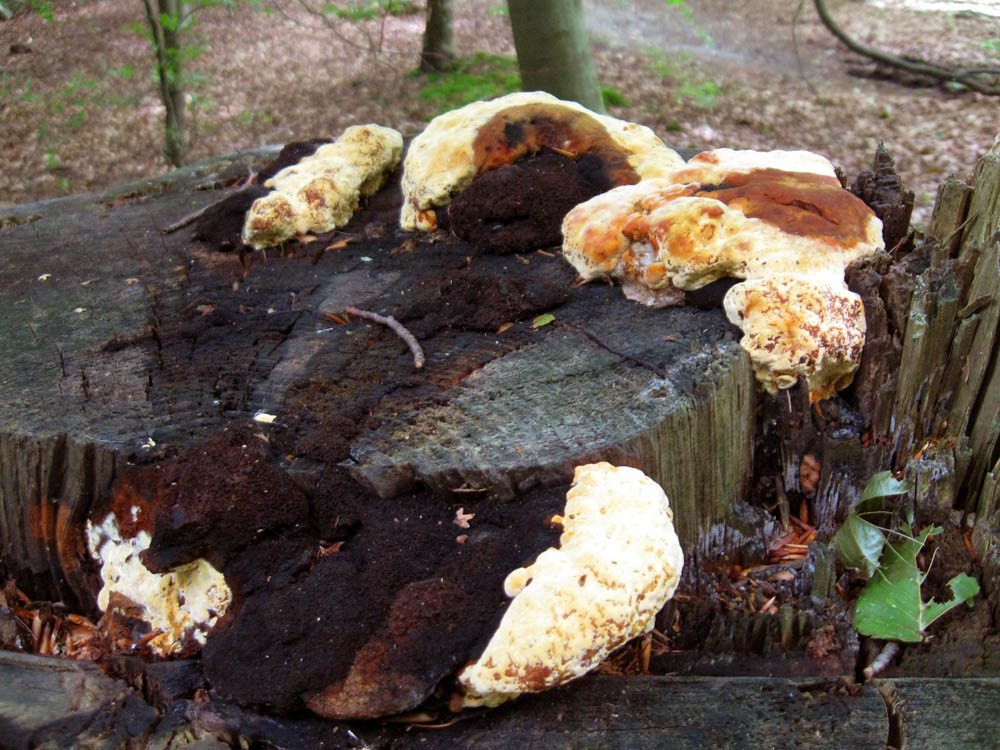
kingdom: Fungi
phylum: Basidiomycota
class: Agaricomycetes
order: Gloeophyllales
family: Gloeophyllaceae
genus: Gloeophyllum
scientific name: Gloeophyllum odoratum
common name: duftende korkhat
